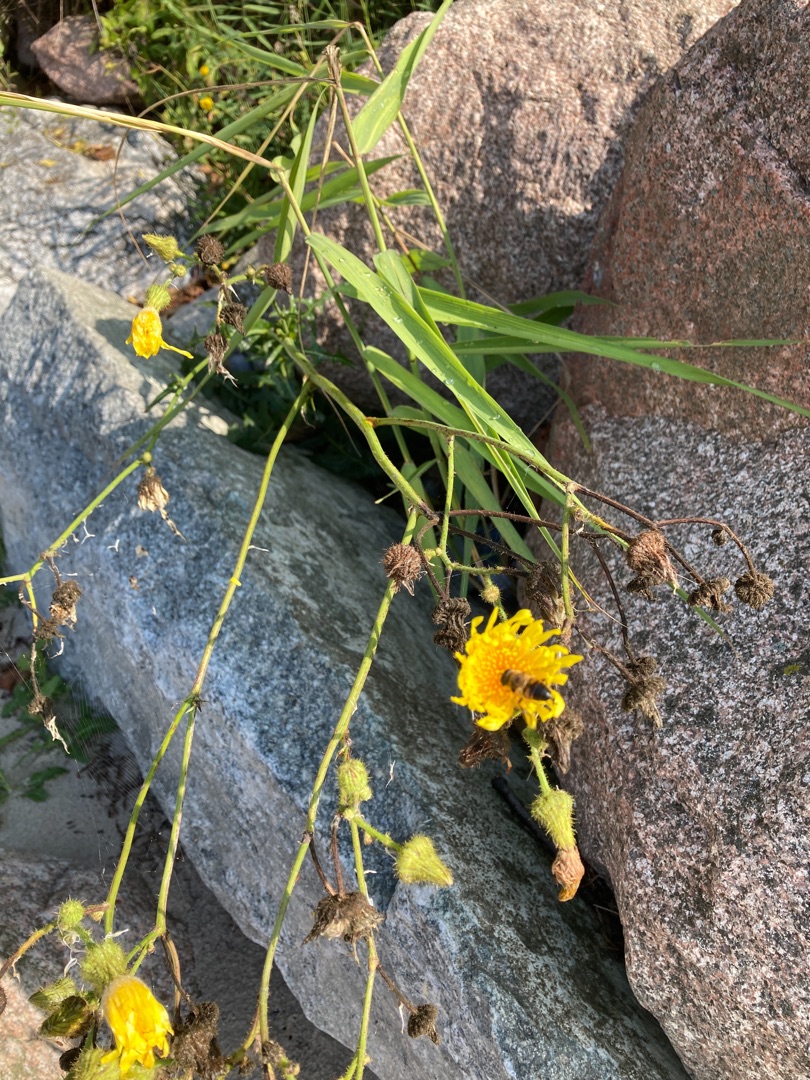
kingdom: Plantae
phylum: Tracheophyta
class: Magnoliopsida
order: Asterales
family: Asteraceae
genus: Sonchus
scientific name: Sonchus arvensis
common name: Ager-svinemælk
